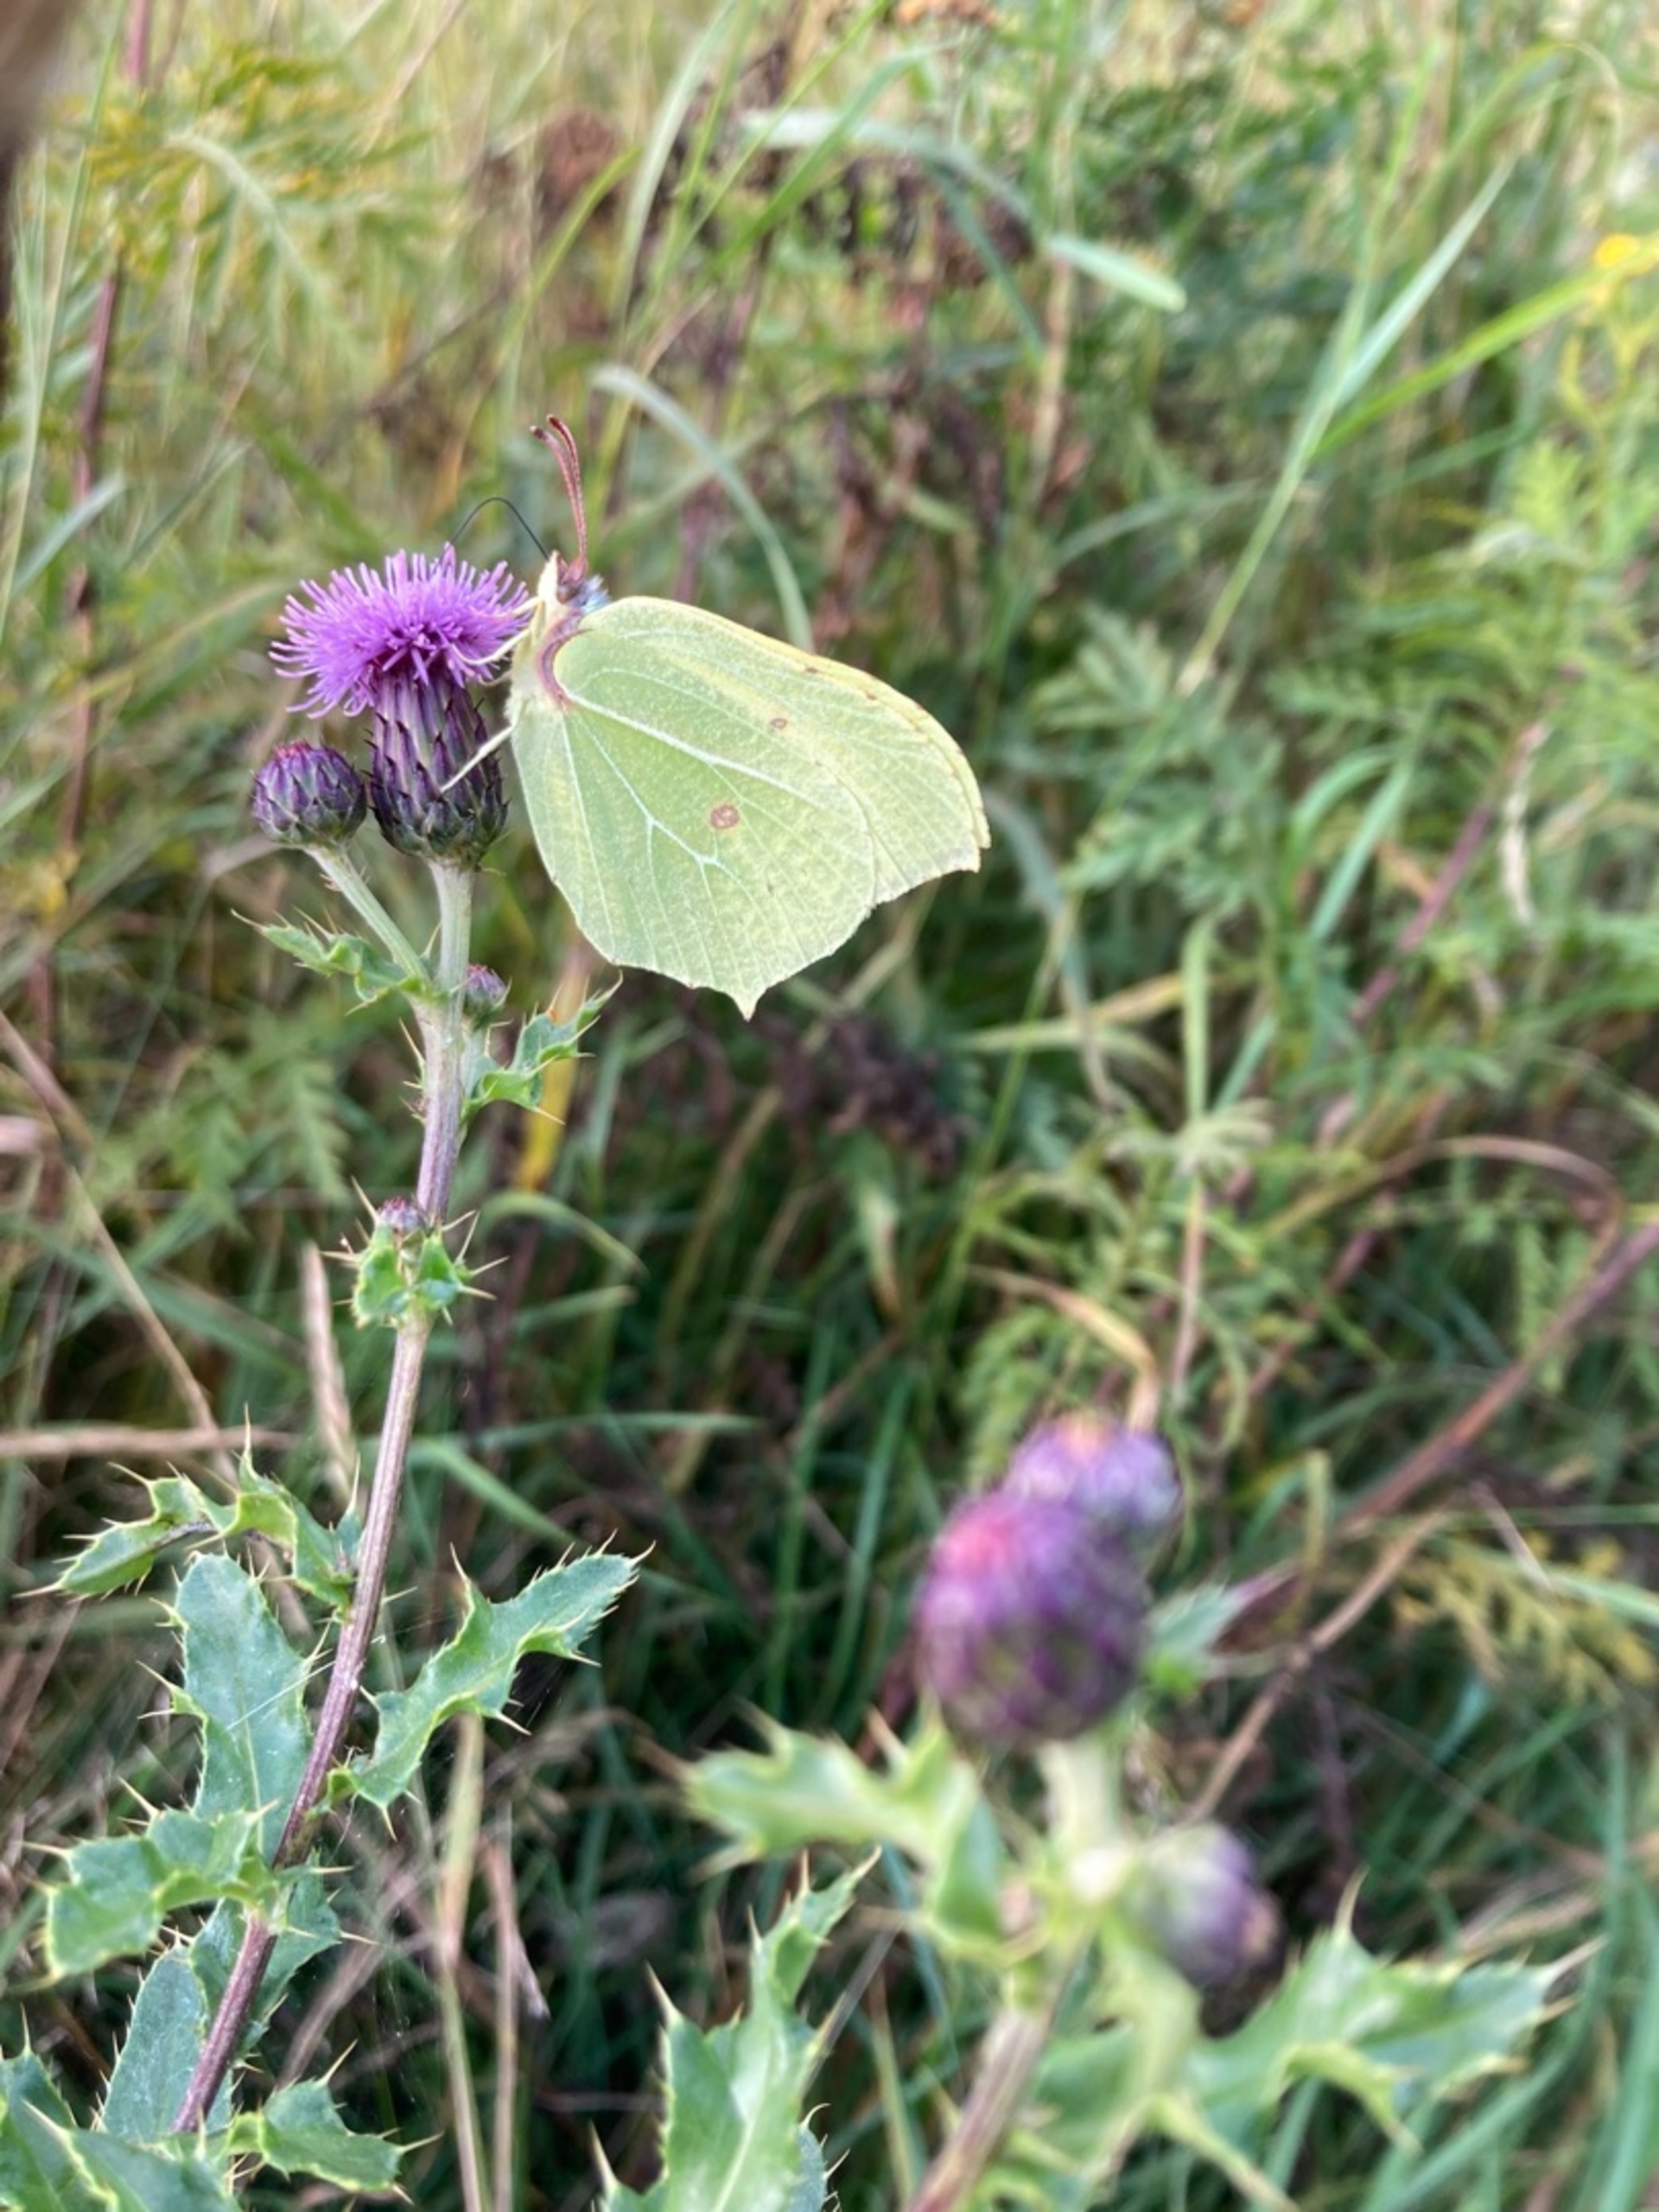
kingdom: Animalia
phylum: Arthropoda
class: Insecta
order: Lepidoptera
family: Pieridae
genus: Gonepteryx
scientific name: Gonepteryx rhamni
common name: Citronsommerfugl
